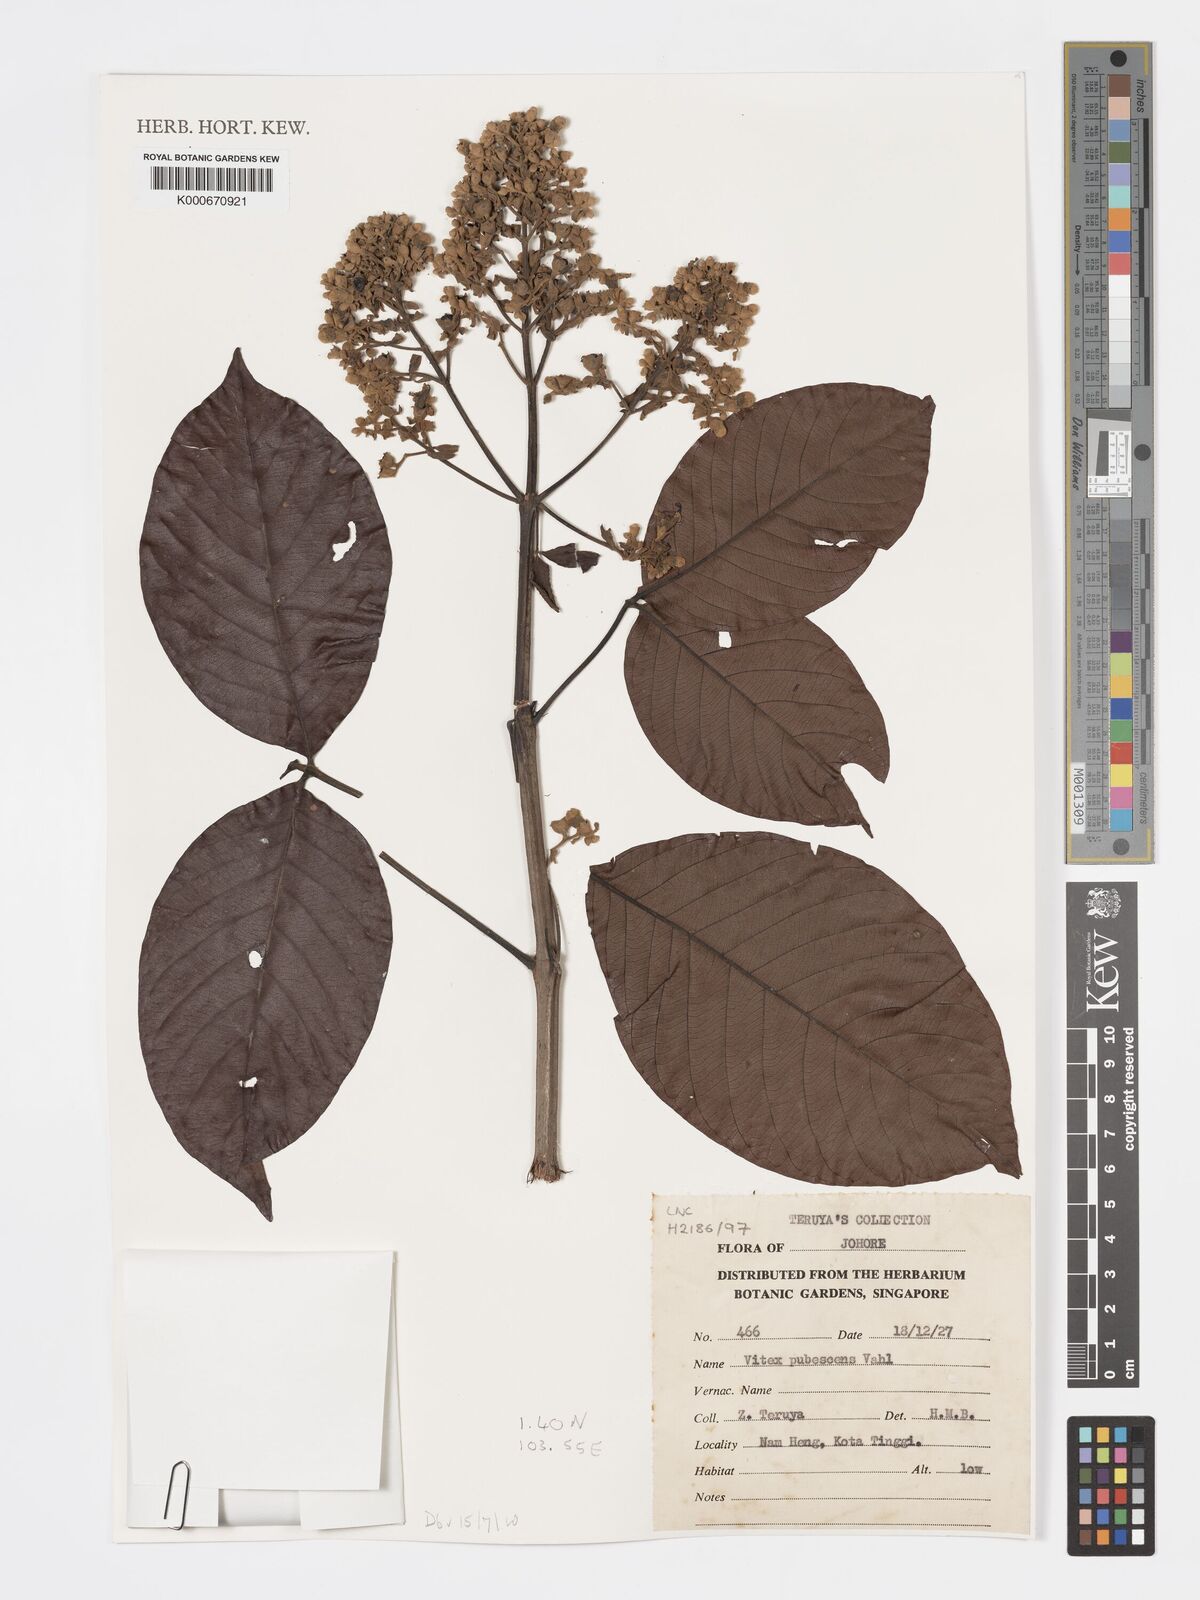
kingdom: Plantae
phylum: Tracheophyta
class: Magnoliopsida
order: Lamiales
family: Lamiaceae
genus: Vitex
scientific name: Vitex pinnata
